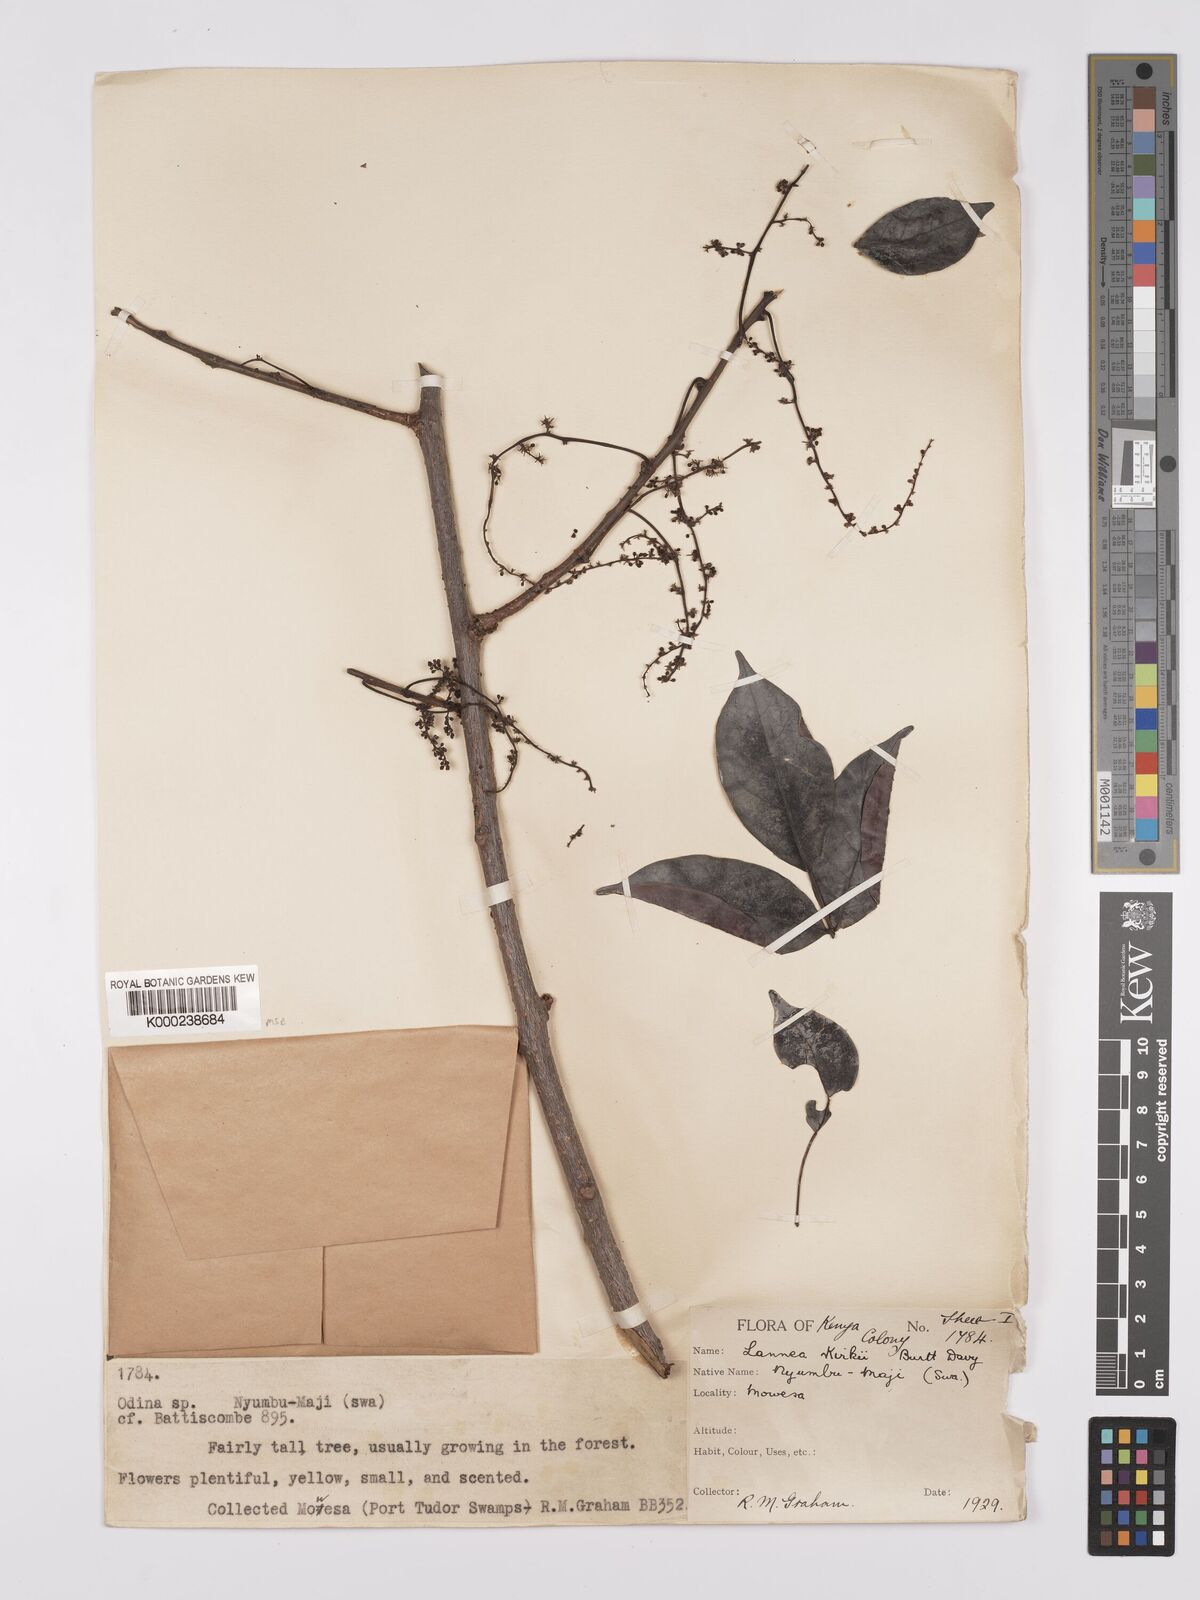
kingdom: Plantae
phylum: Tracheophyta
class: Magnoliopsida
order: Sapindales
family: Anacardiaceae
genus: Lannea
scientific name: Lannea schweinfurthii
